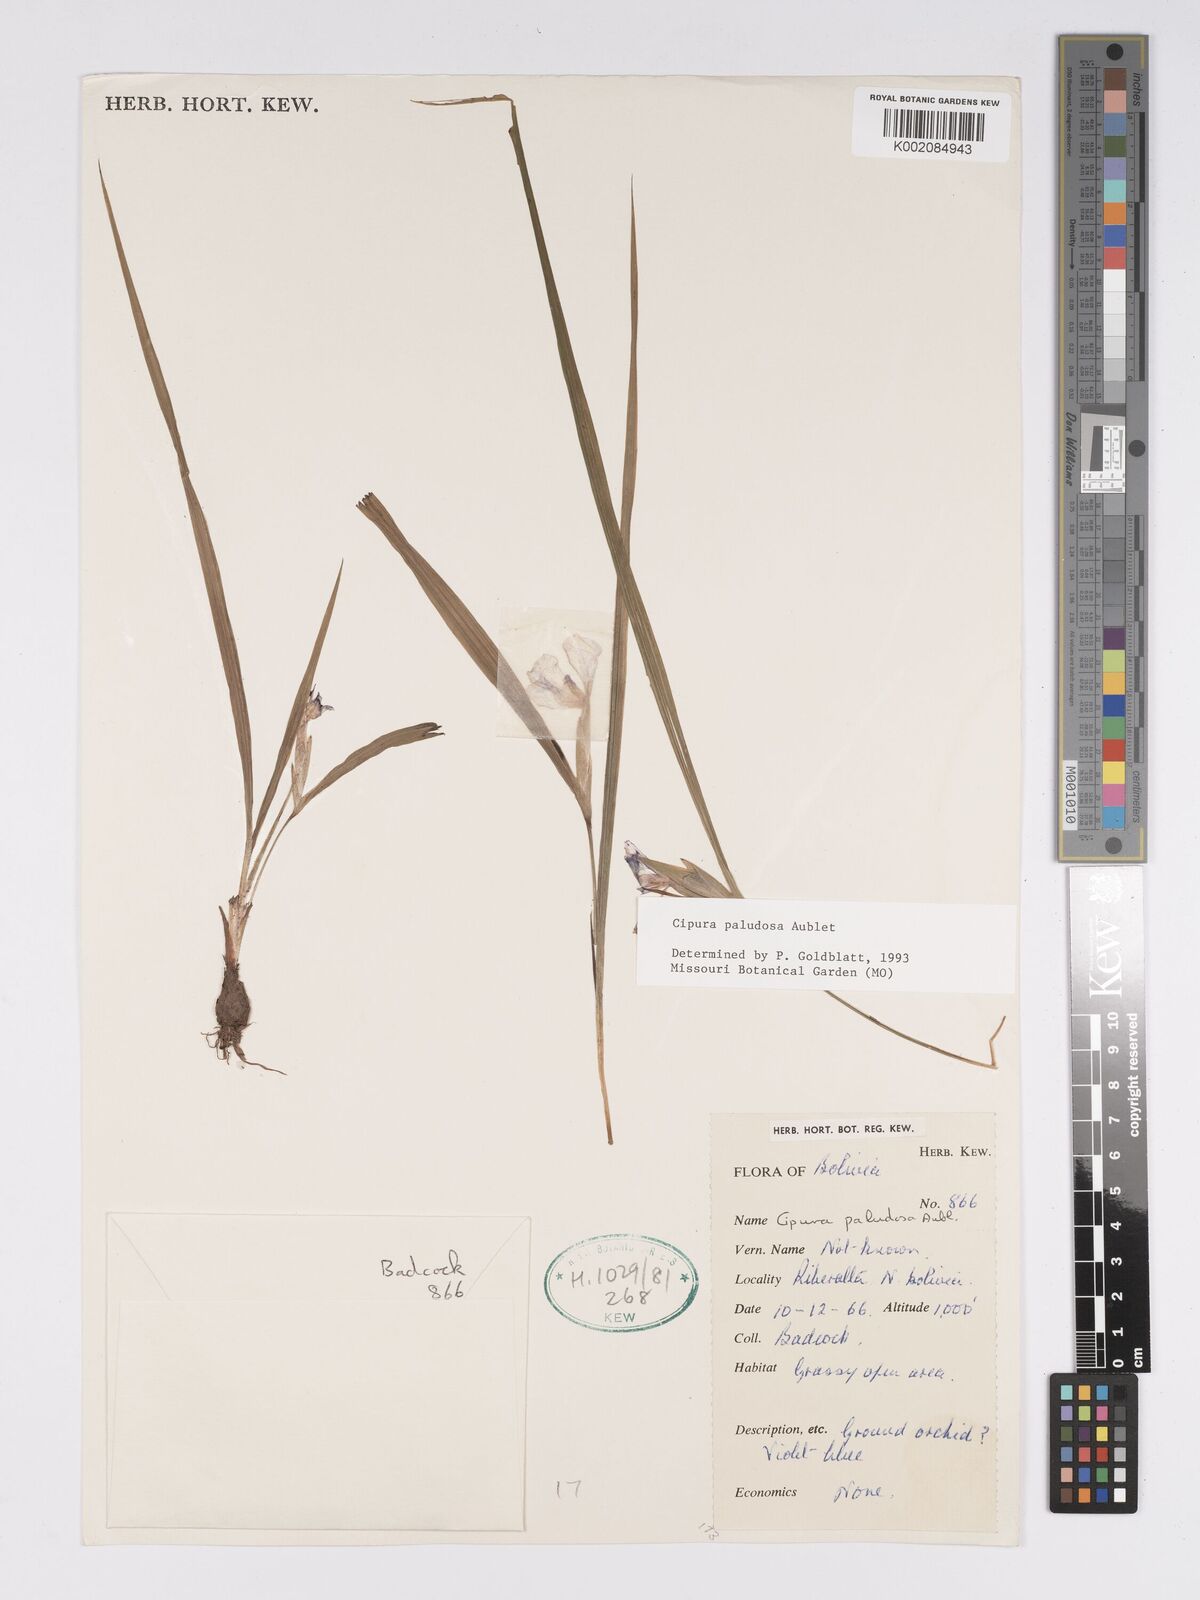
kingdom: Plantae
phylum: Tracheophyta
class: Liliopsida
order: Asparagales
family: Iridaceae
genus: Cipura
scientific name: Cipura paludosa
